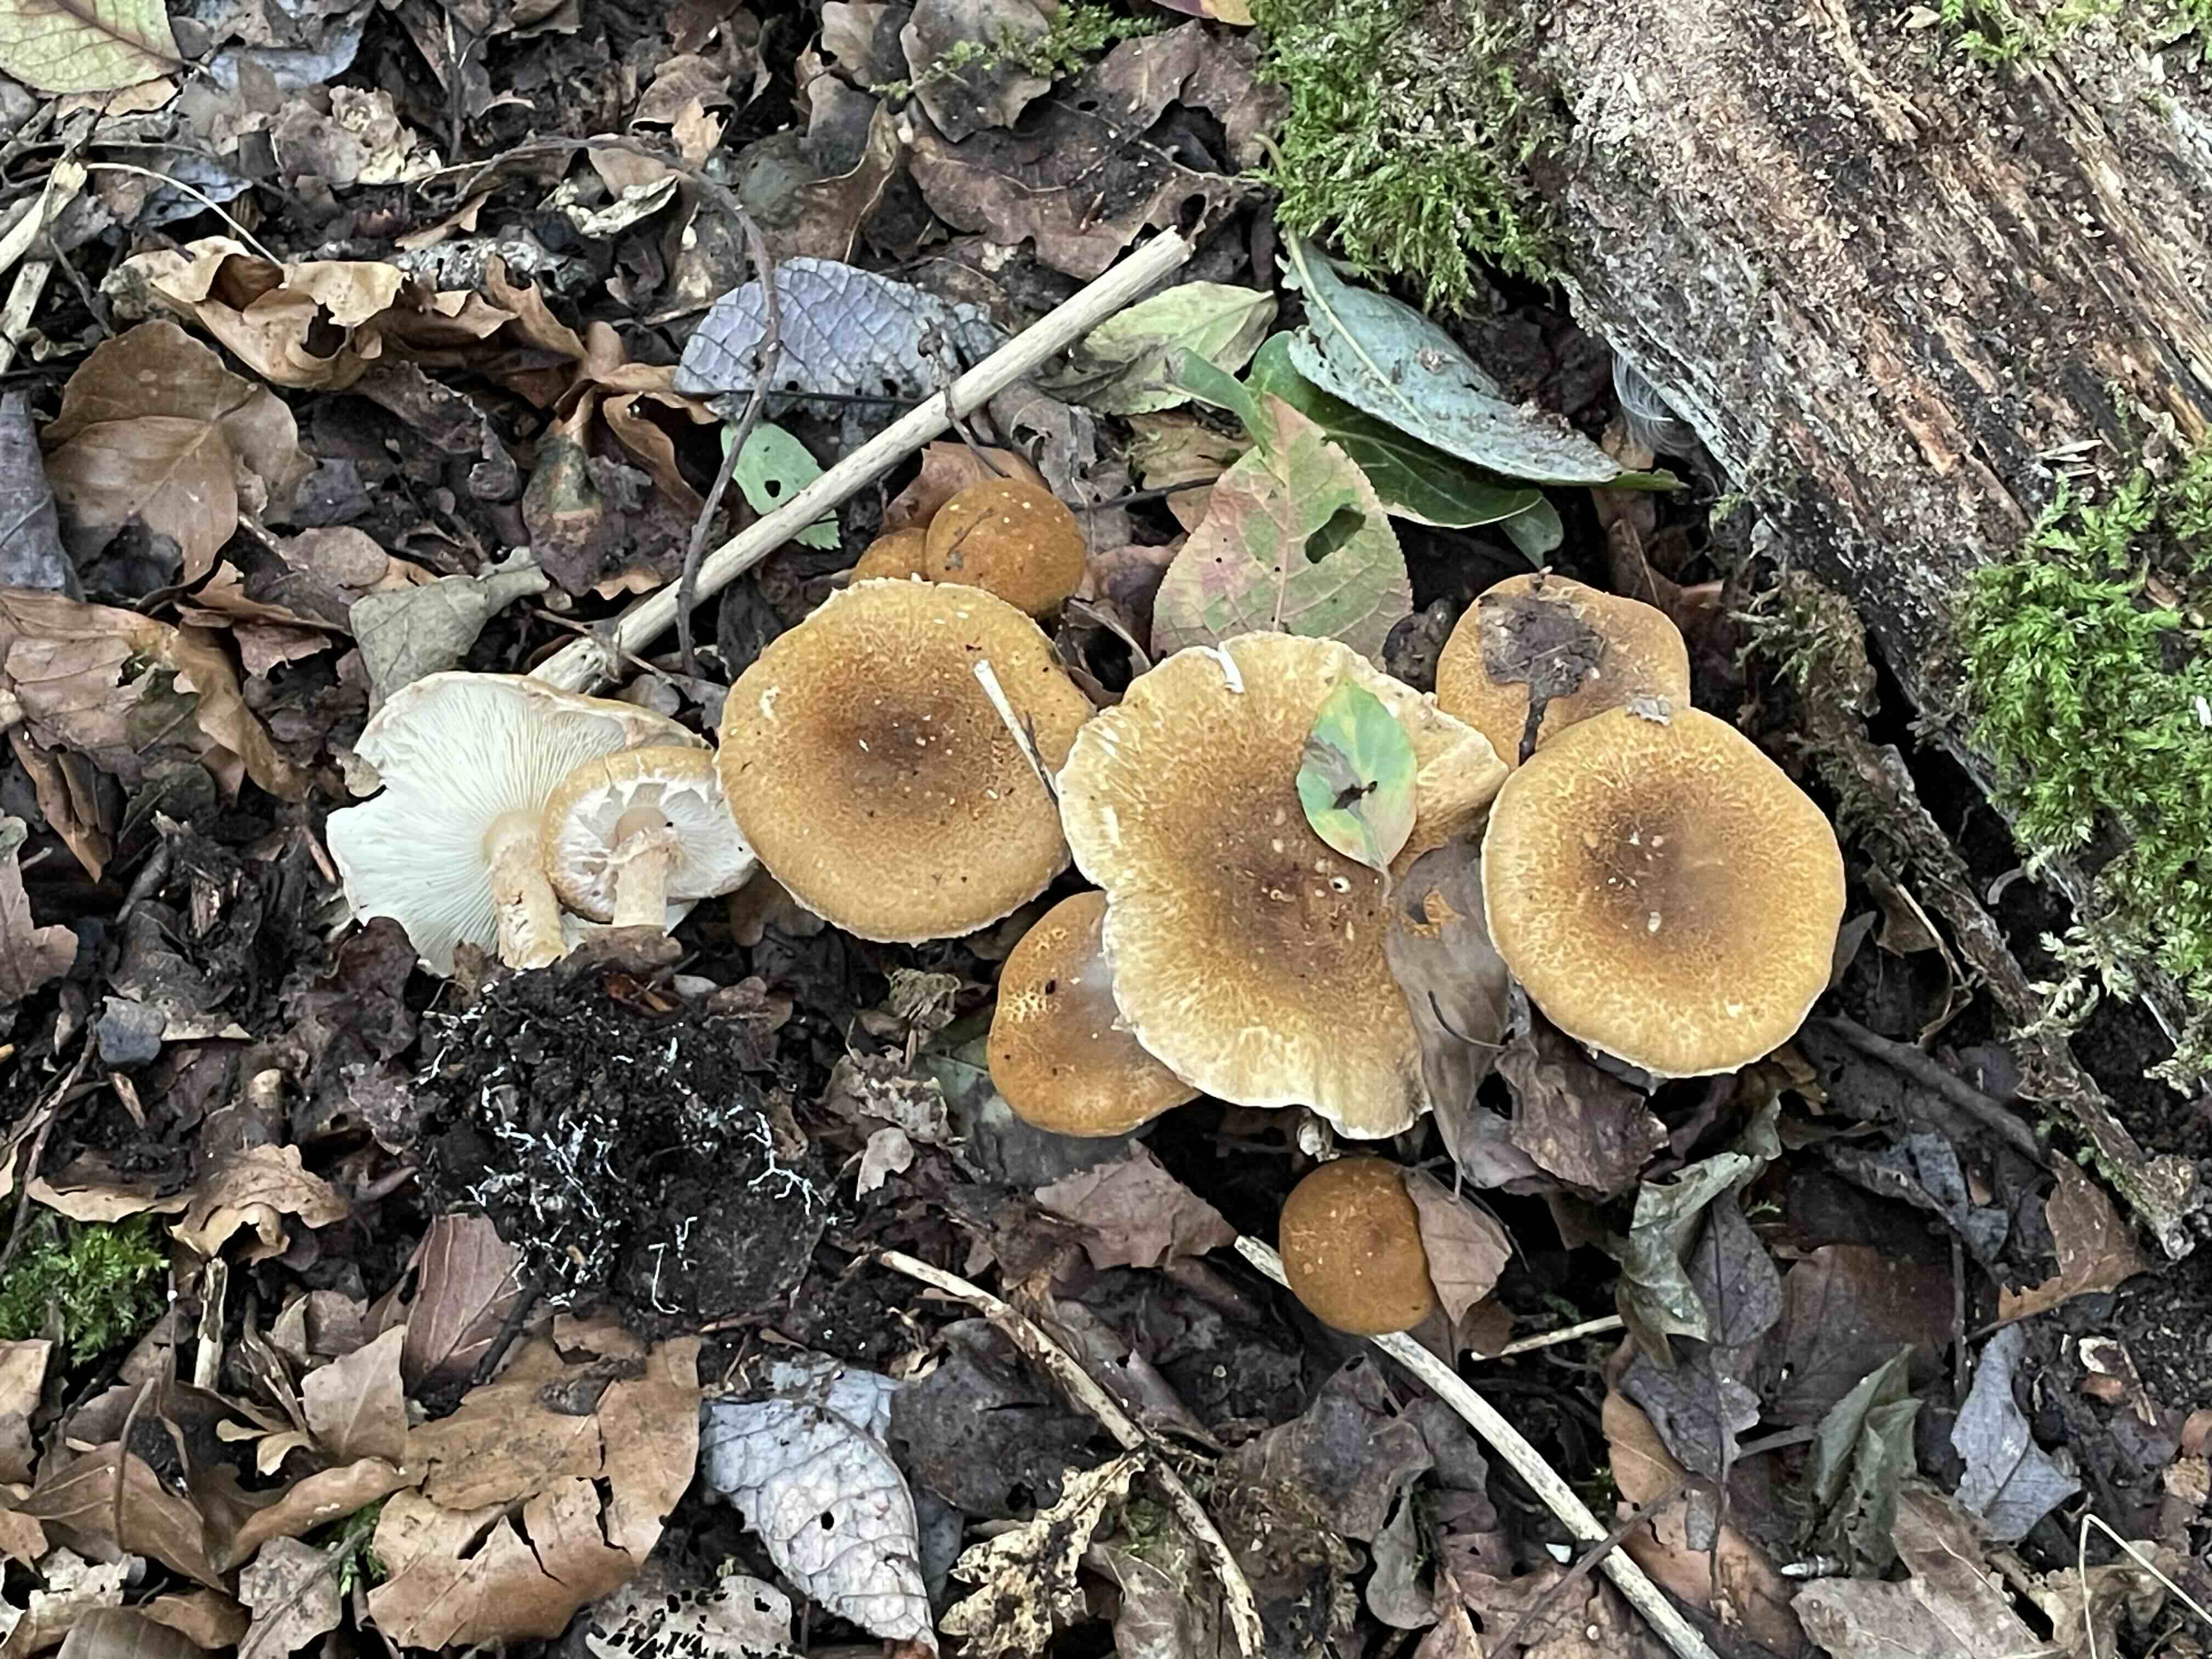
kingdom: Fungi
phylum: Basidiomycota
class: Agaricomycetes
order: Agaricales
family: Agaricaceae
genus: Leucocoprinus
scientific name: Leucocoprinus straminellus
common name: rustbrun parasolhat
